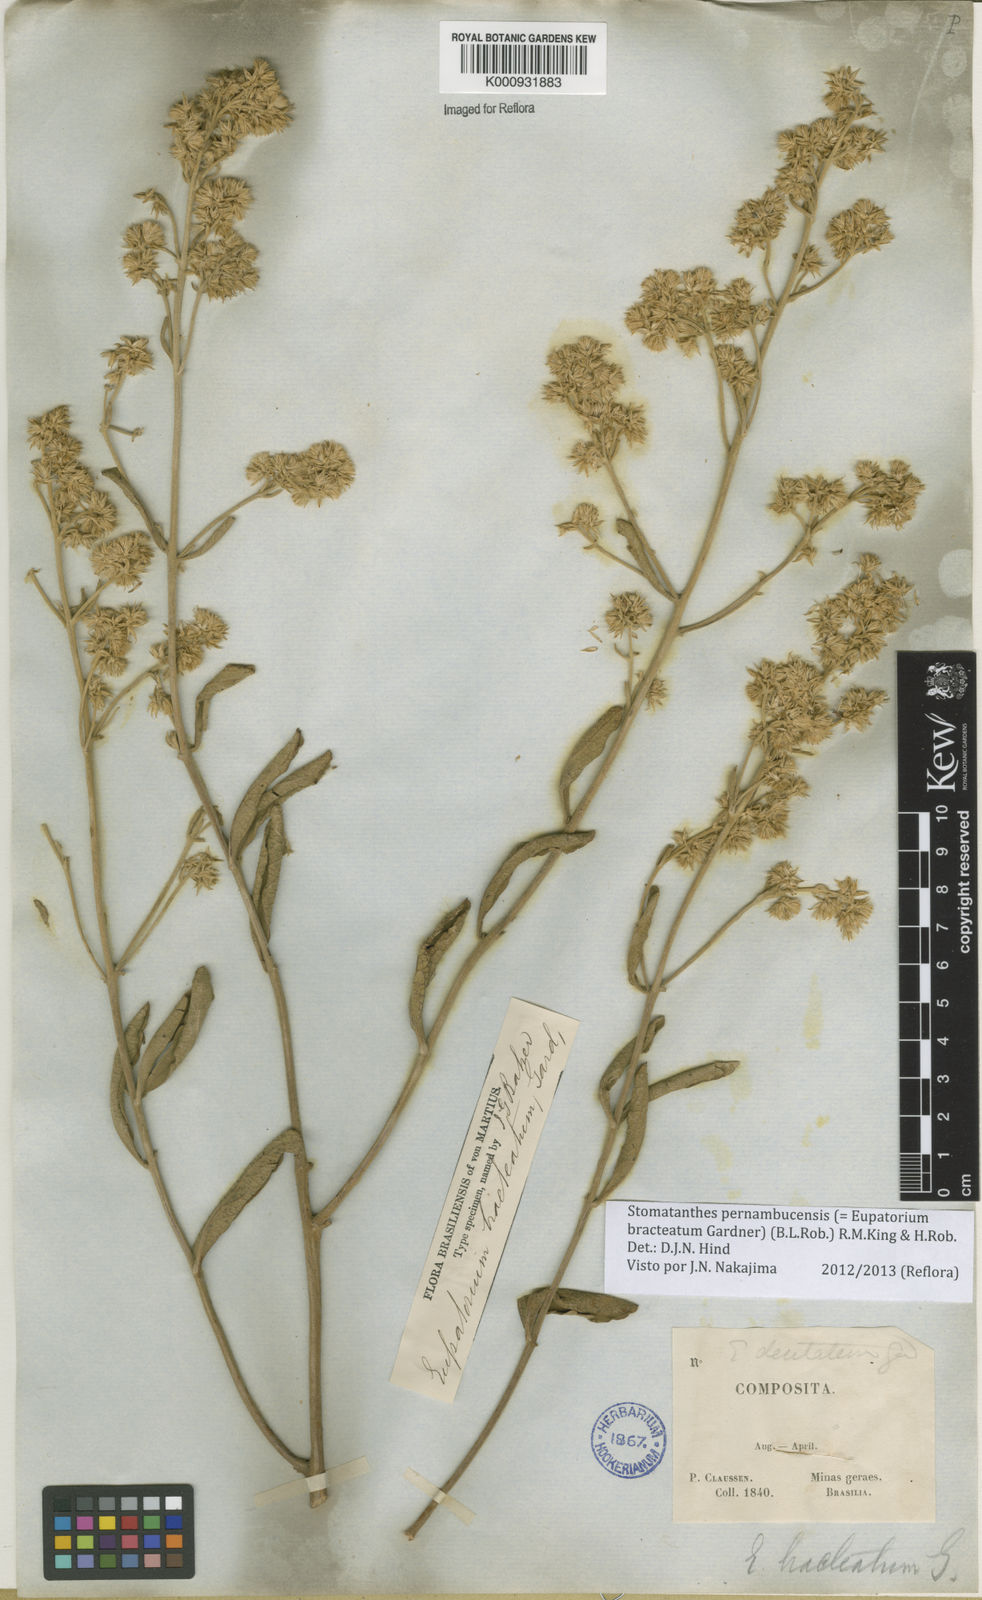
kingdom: Plantae
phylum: Tracheophyta
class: Magnoliopsida
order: Asterales
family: Asteraceae
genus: Stomatanthes
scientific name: Stomatanthes pernambucensis
